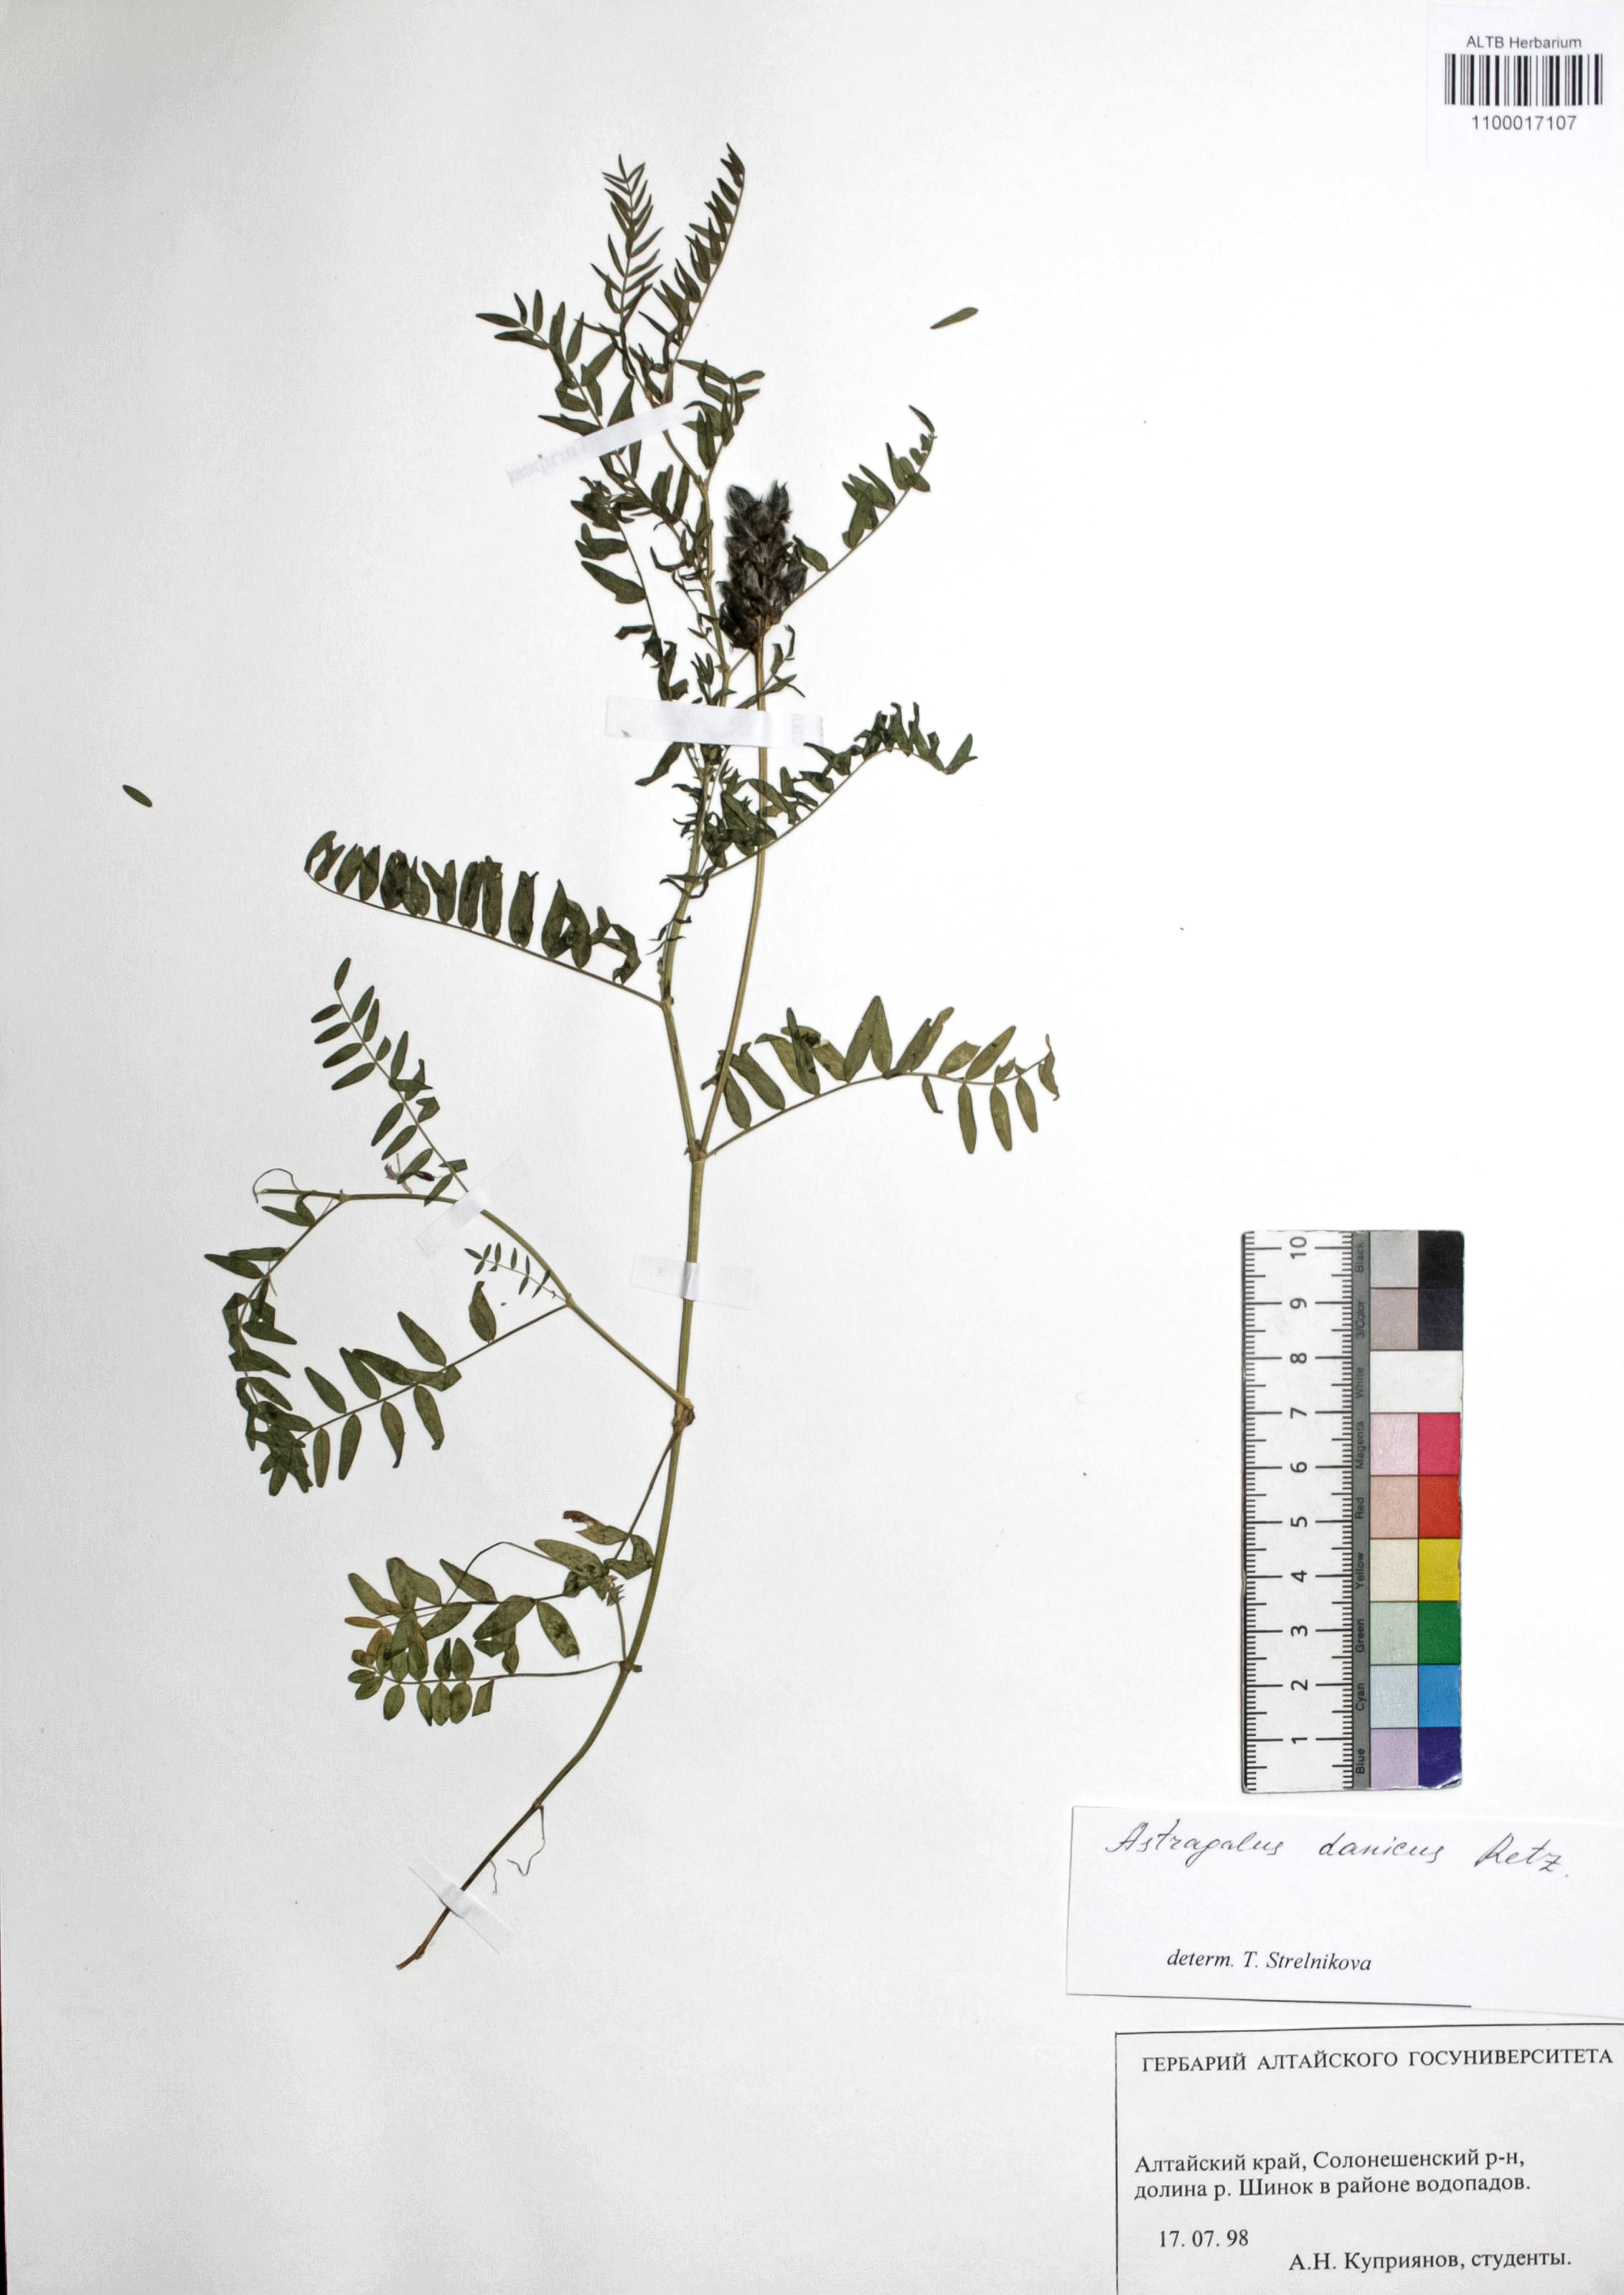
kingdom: Plantae
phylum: Tracheophyta
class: Magnoliopsida
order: Fabales
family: Fabaceae
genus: Astragalus
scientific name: Astragalus danicus
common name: Purple milk-vetch
